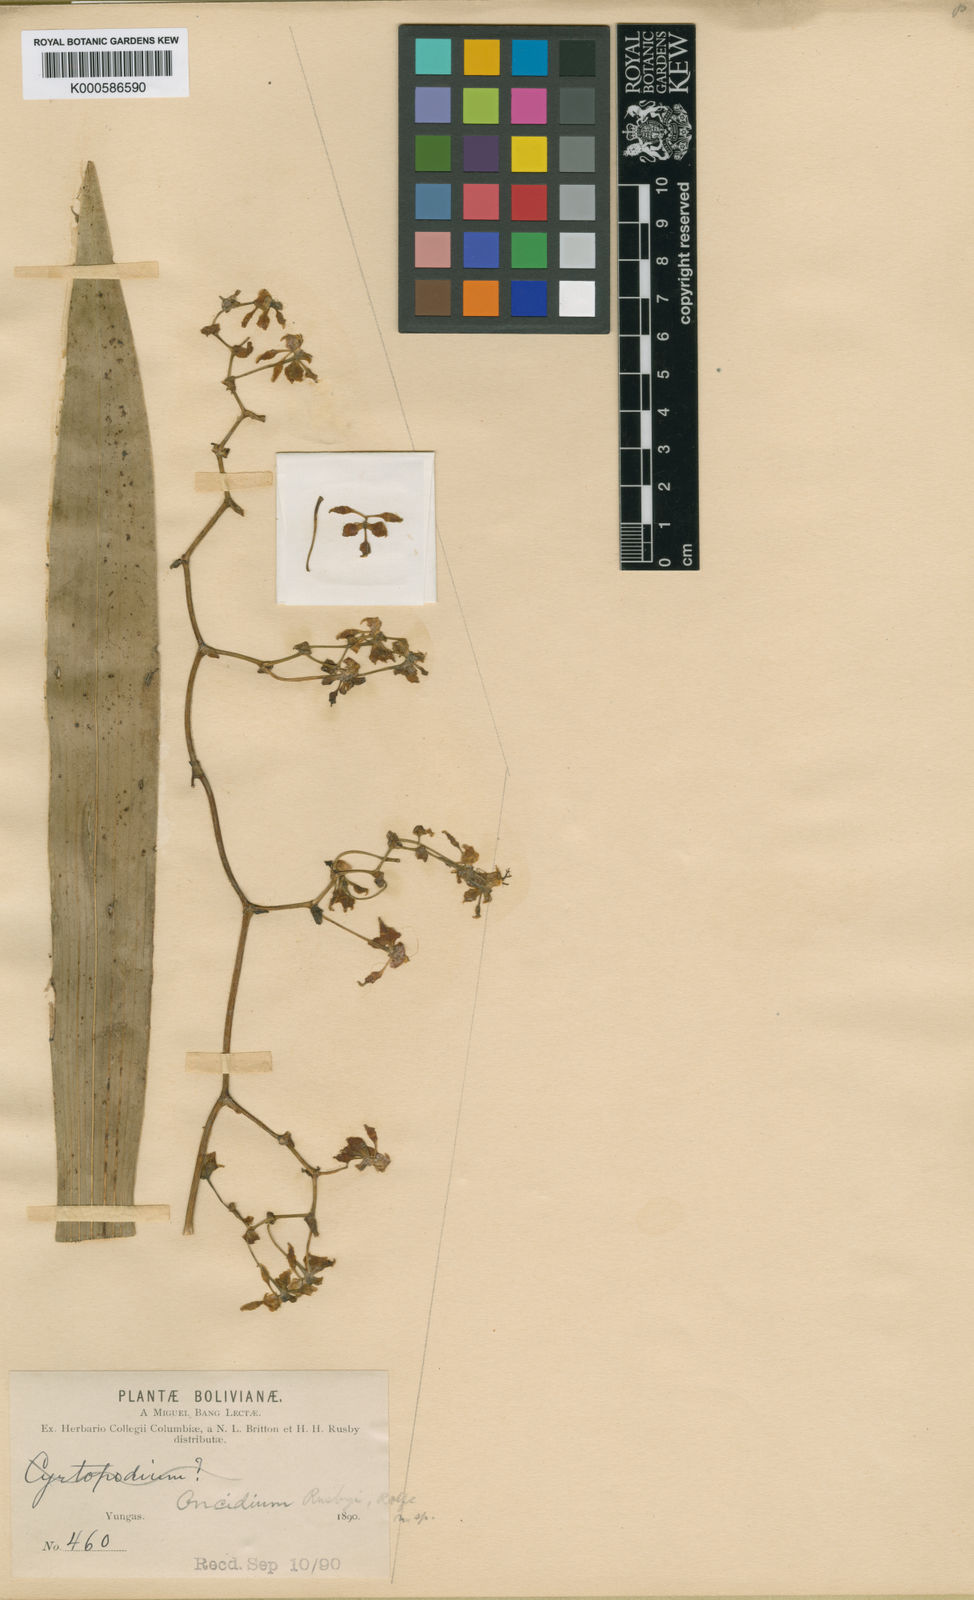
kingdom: Plantae
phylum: Tracheophyta
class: Liliopsida
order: Asparagales
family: Orchidaceae
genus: Cyrtochilum
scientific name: Cyrtochilum
